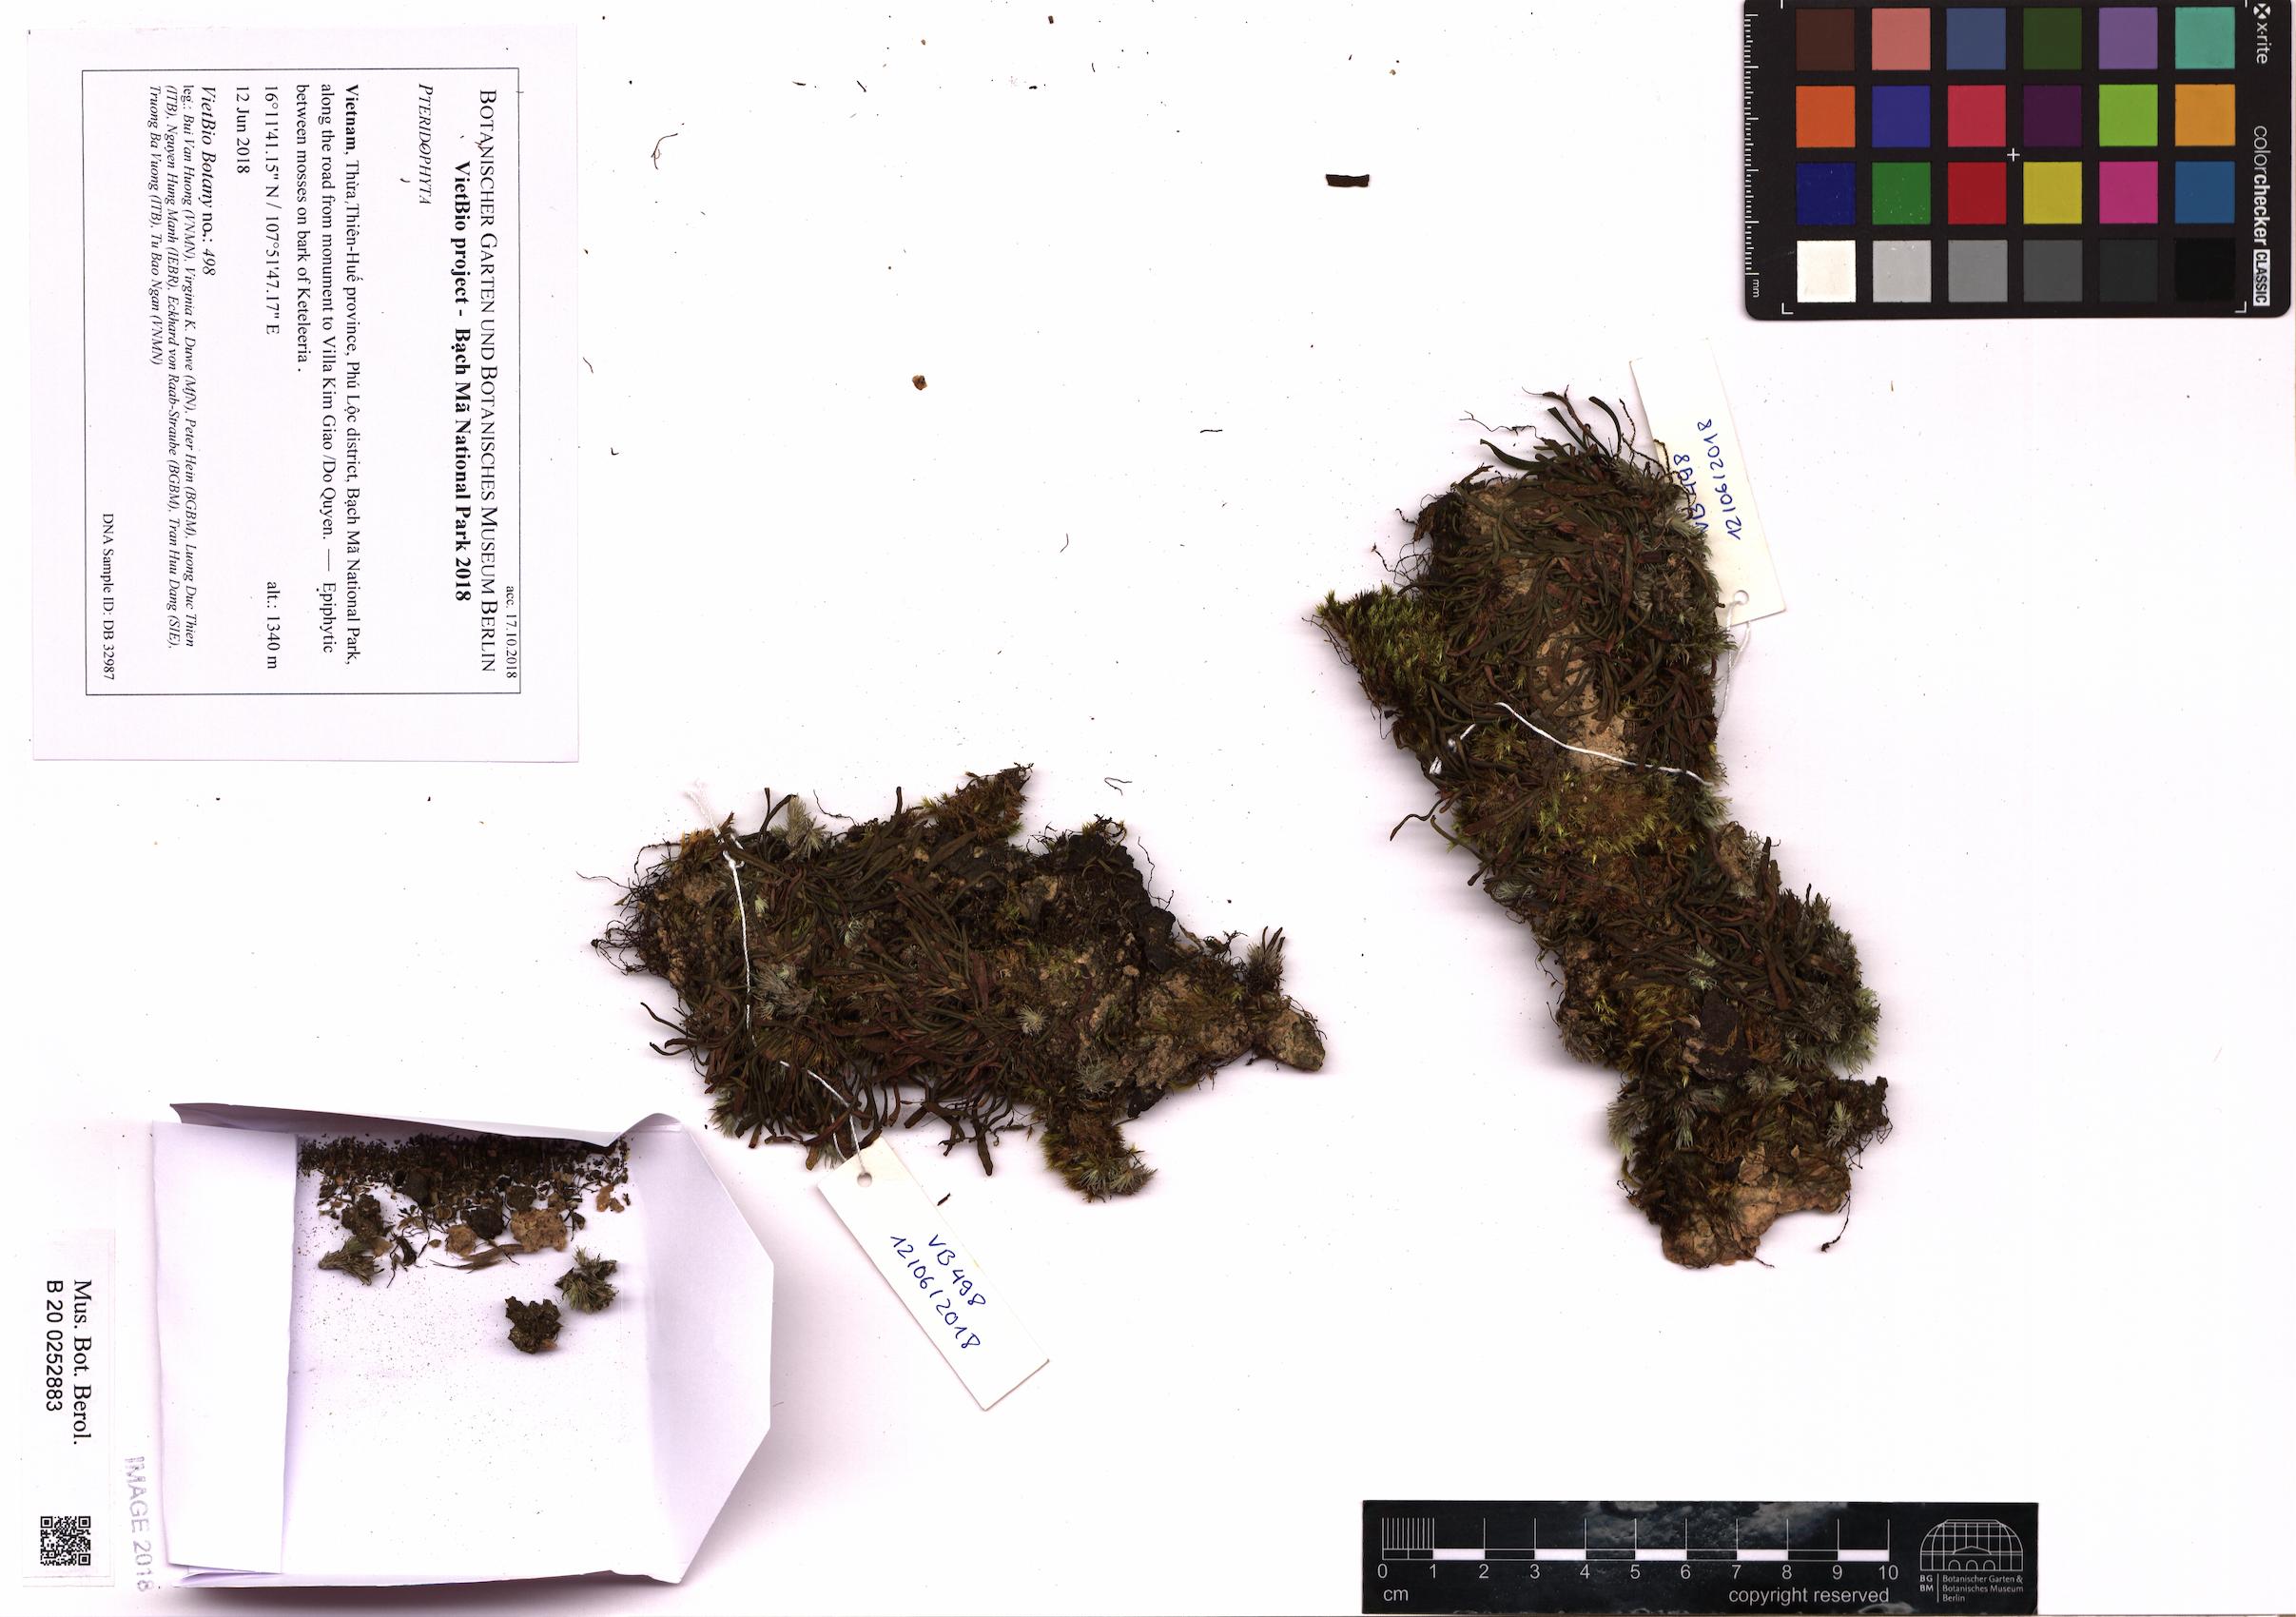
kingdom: Plantae
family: Pteridophyta
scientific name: Pteridophyta
